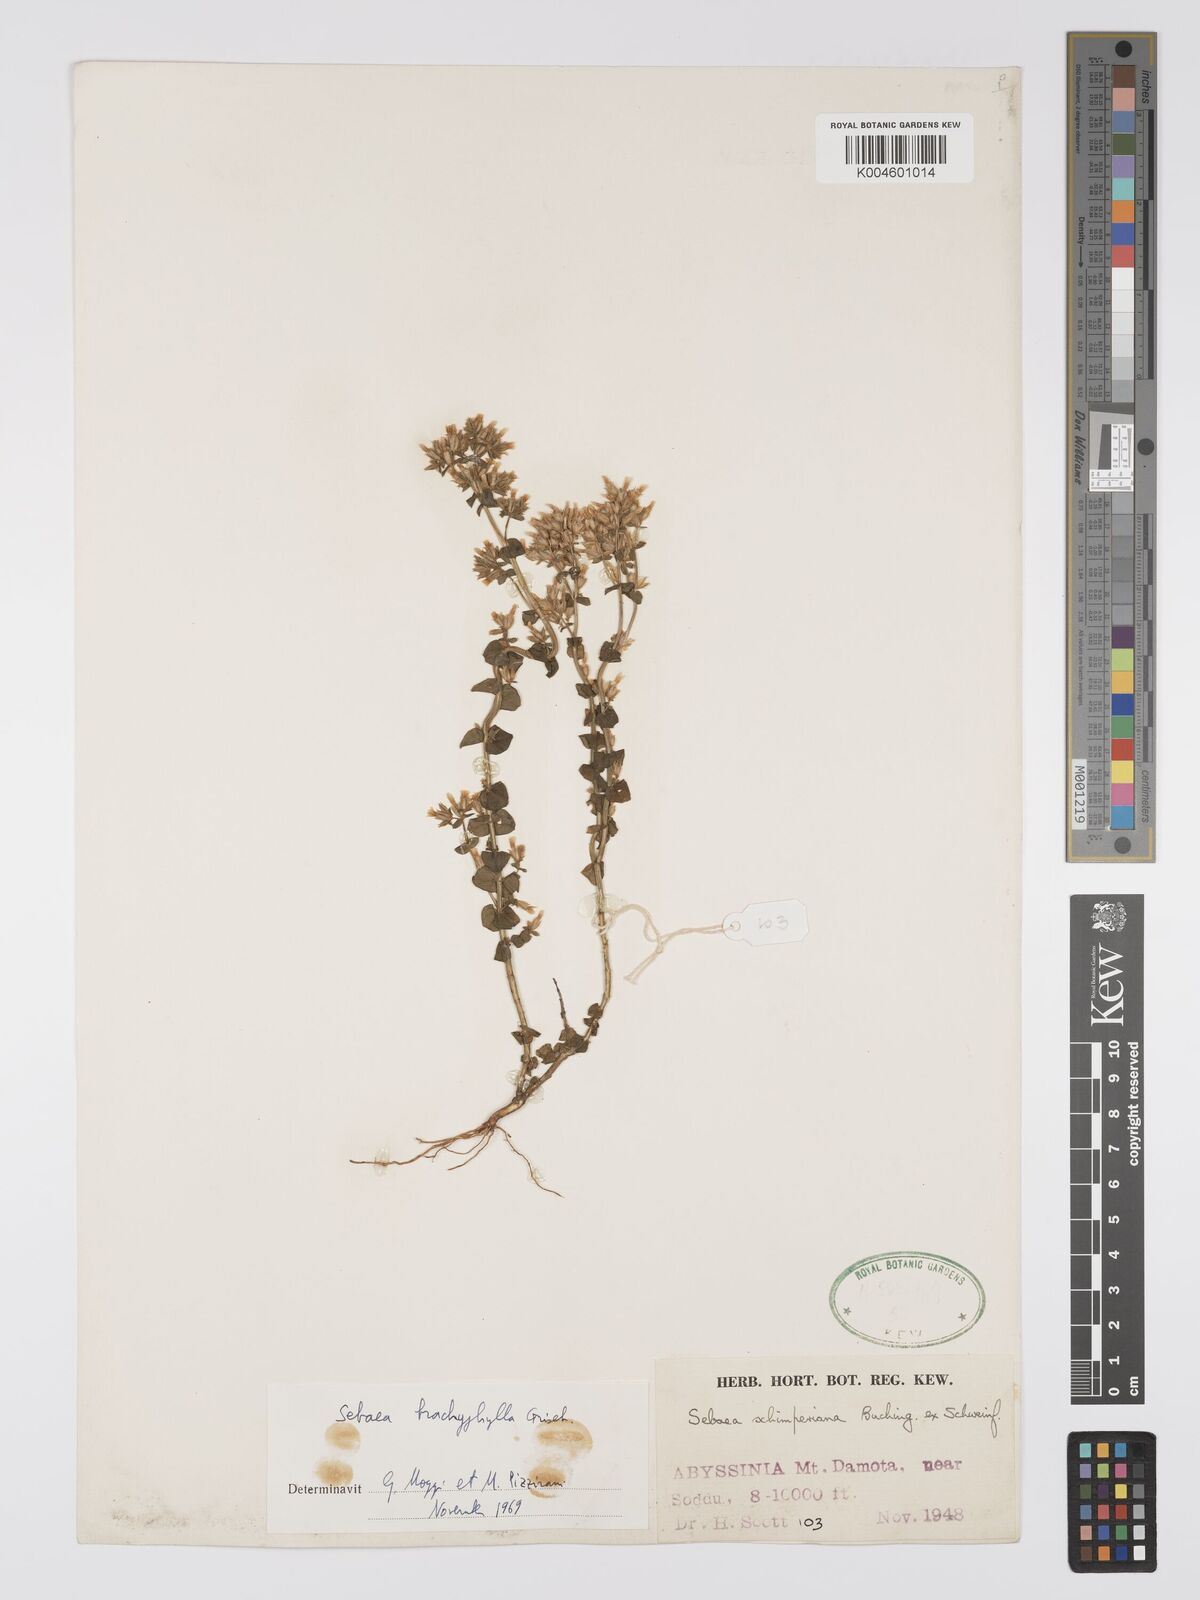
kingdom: Plantae
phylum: Tracheophyta
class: Magnoliopsida
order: Gentianales
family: Gentianaceae
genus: Sebaea
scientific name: Sebaea brachyphylla
